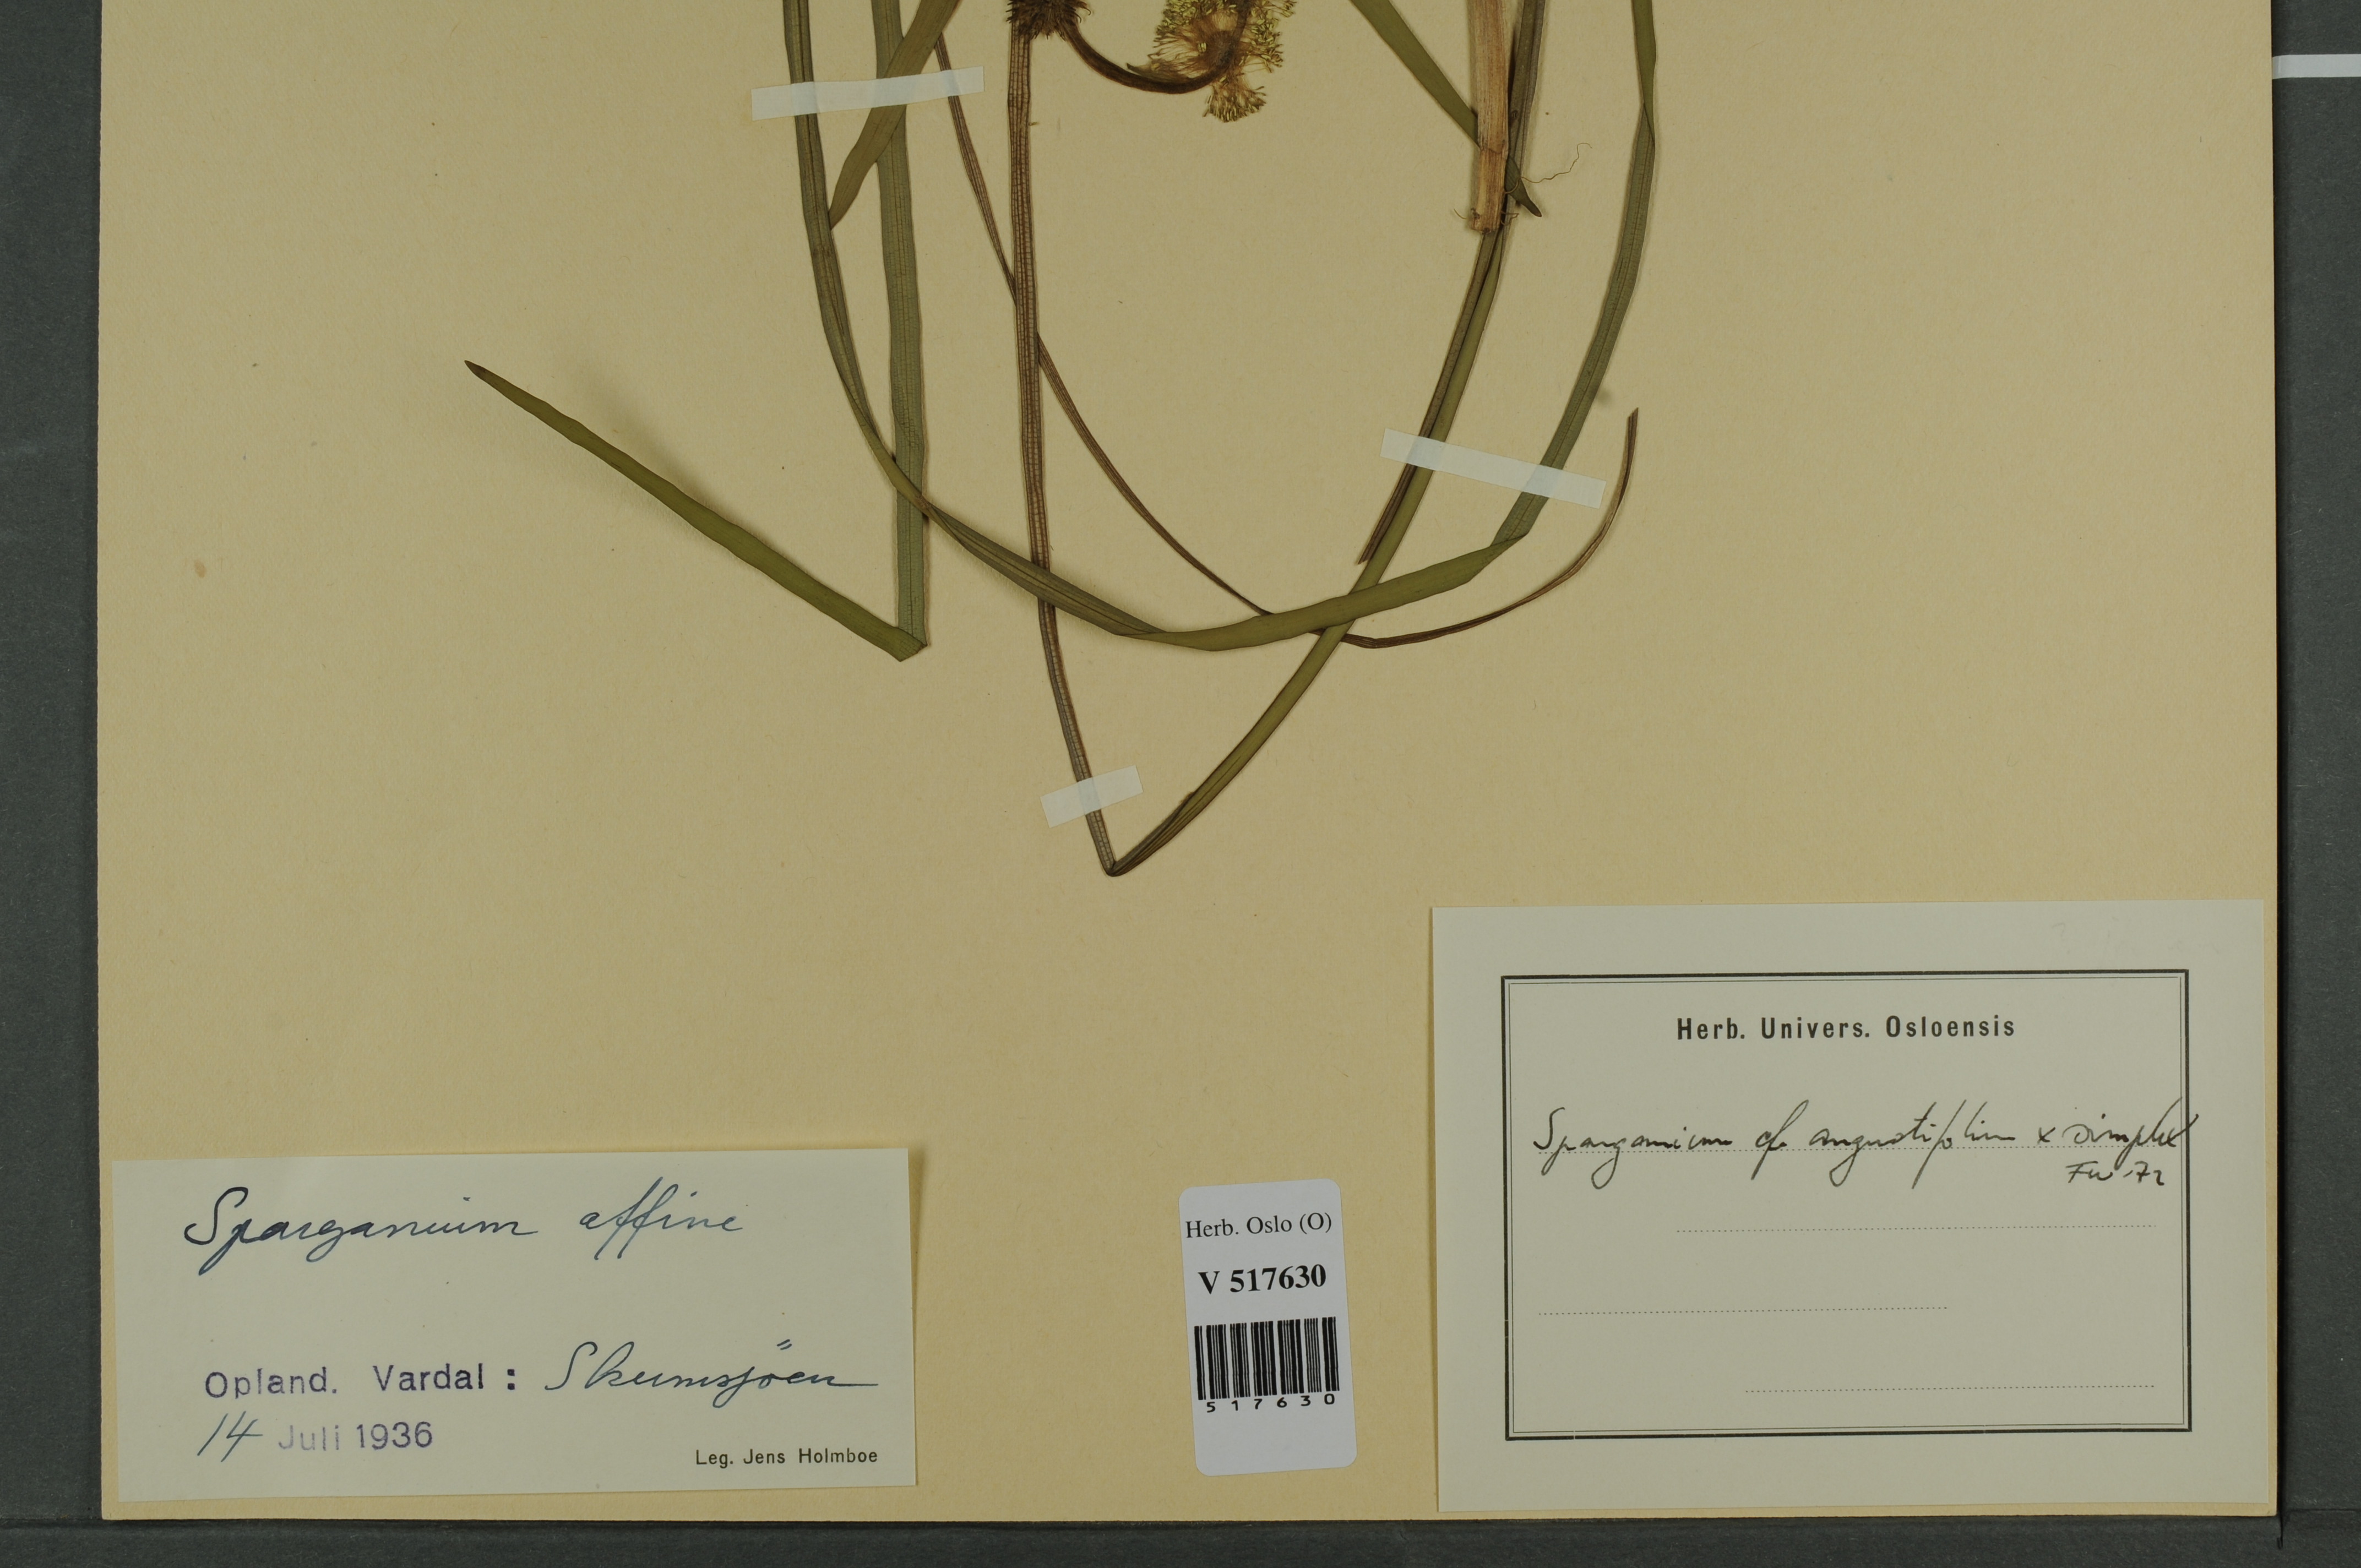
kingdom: Plantae
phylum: Tracheophyta
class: Liliopsida
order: Poales
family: Typhaceae
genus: Sparganium
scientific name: Sparganium
